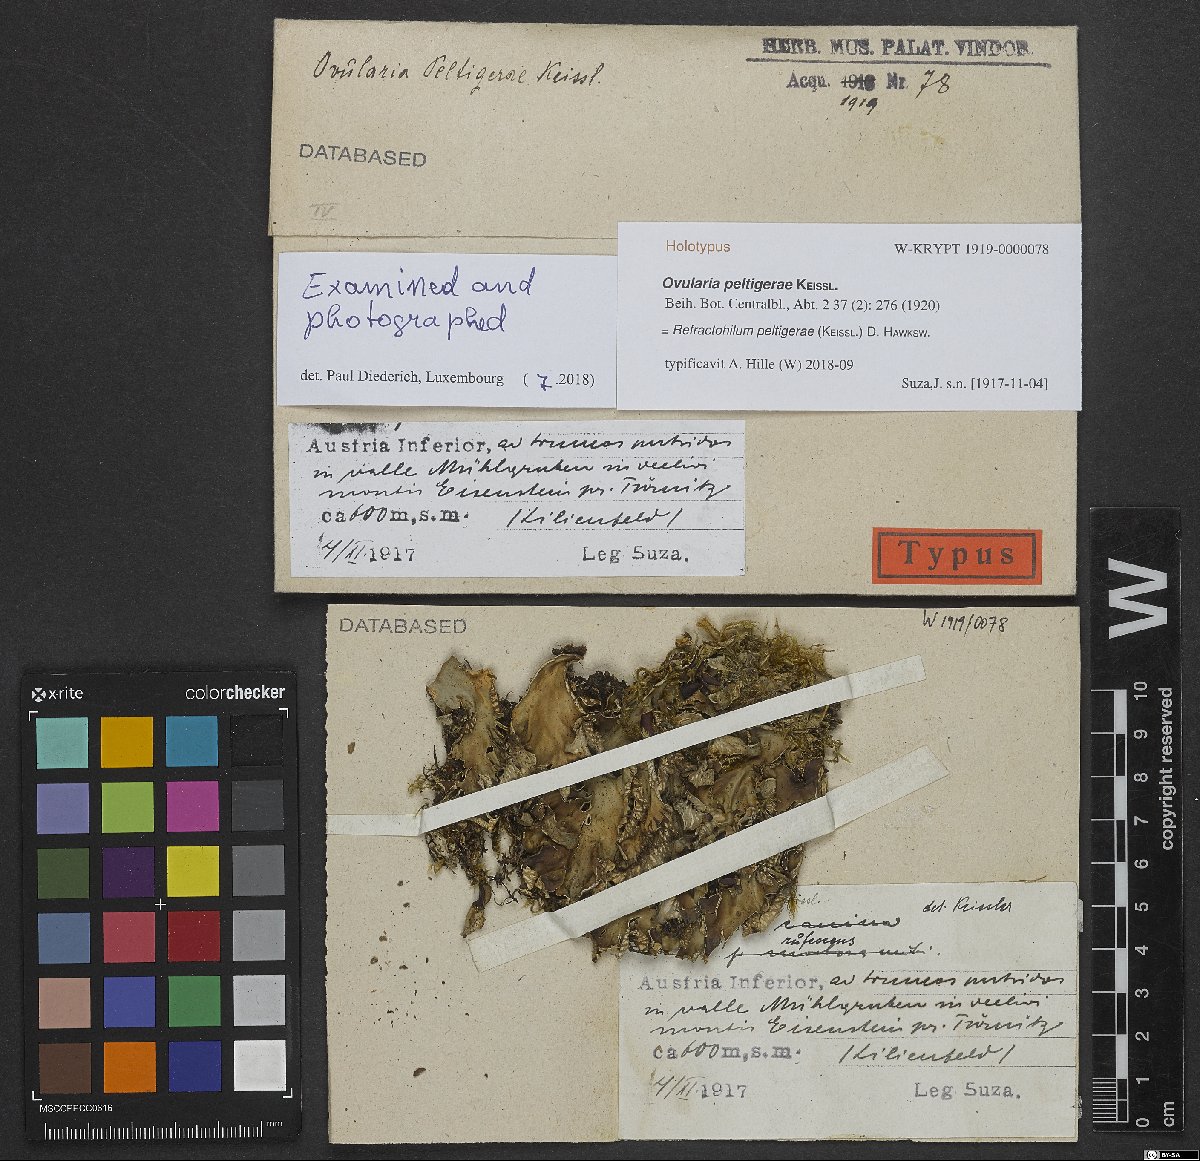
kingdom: Fungi
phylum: Ascomycota
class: Dothideomycetes
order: Pleosporales
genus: Refractohilum
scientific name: Refractohilum peltigerae
